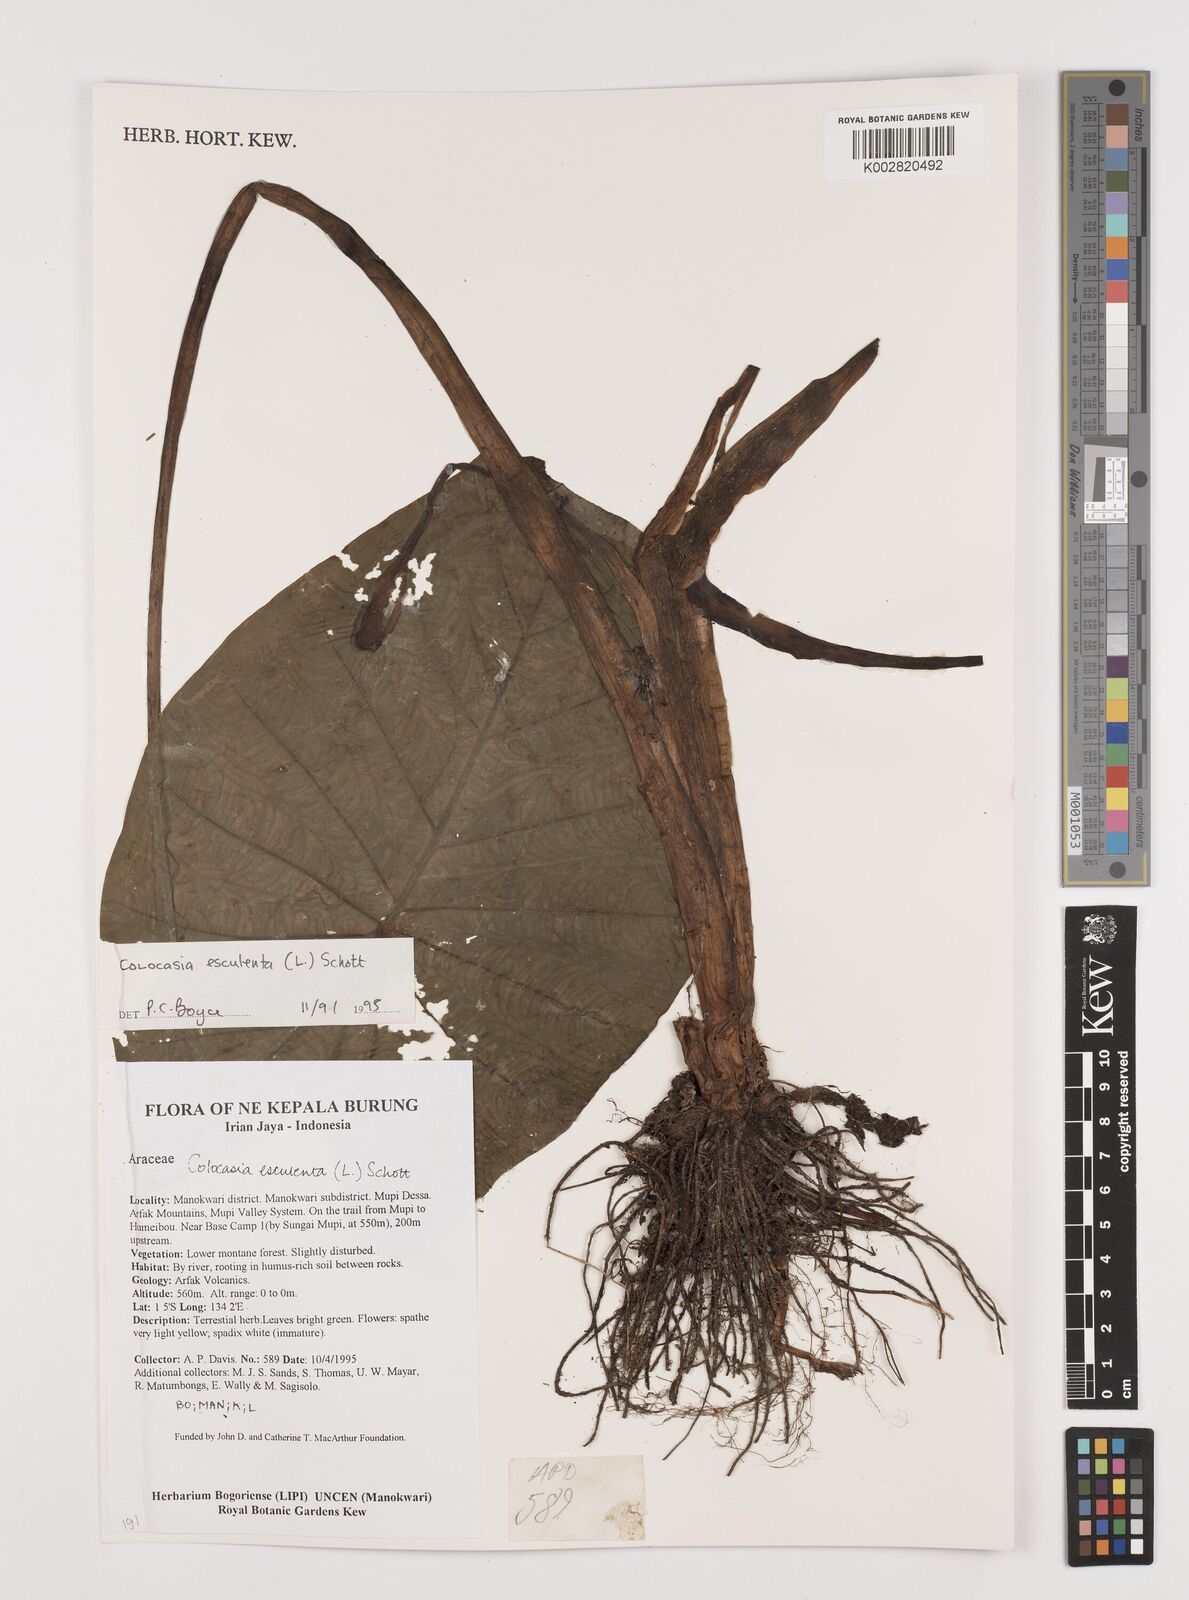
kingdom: Plantae
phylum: Tracheophyta
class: Liliopsida
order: Alismatales
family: Araceae
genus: Colocasia
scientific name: Colocasia esculenta
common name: Taro
